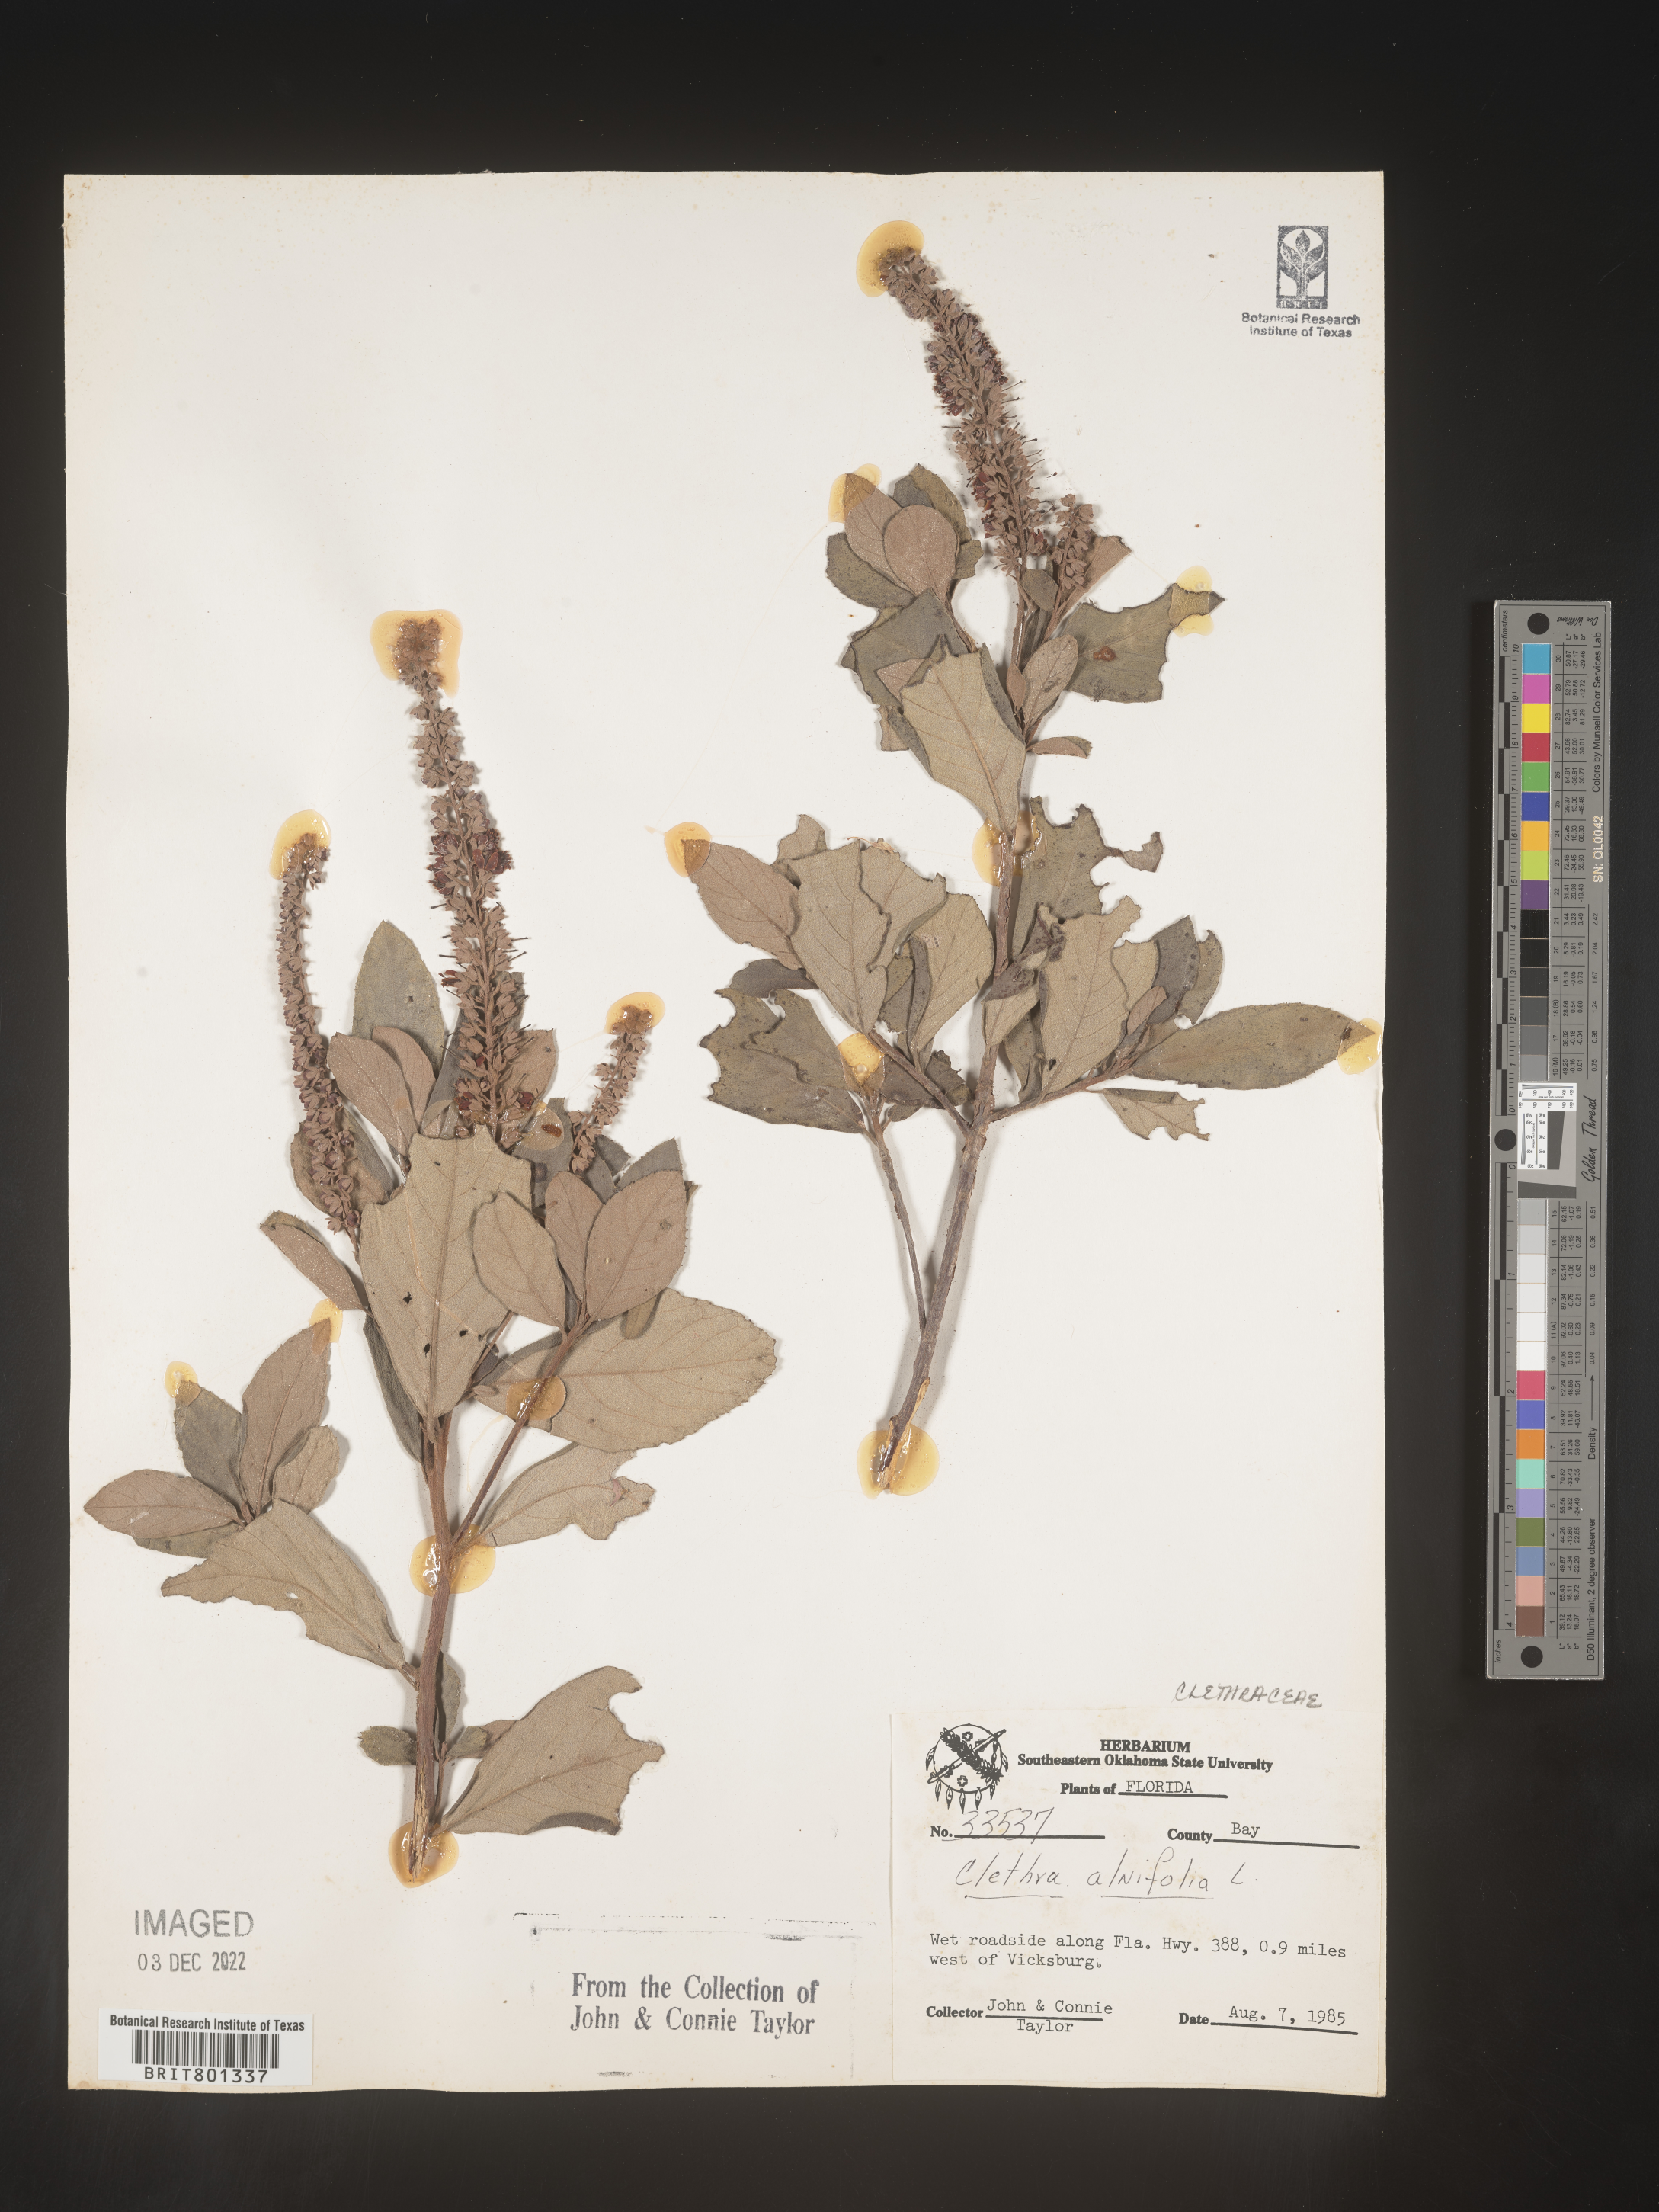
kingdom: Plantae
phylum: Tracheophyta
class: Magnoliopsida
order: Ericales
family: Clethraceae
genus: Clethra
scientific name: Clethra alnifolia
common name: Sweet pepperbush
